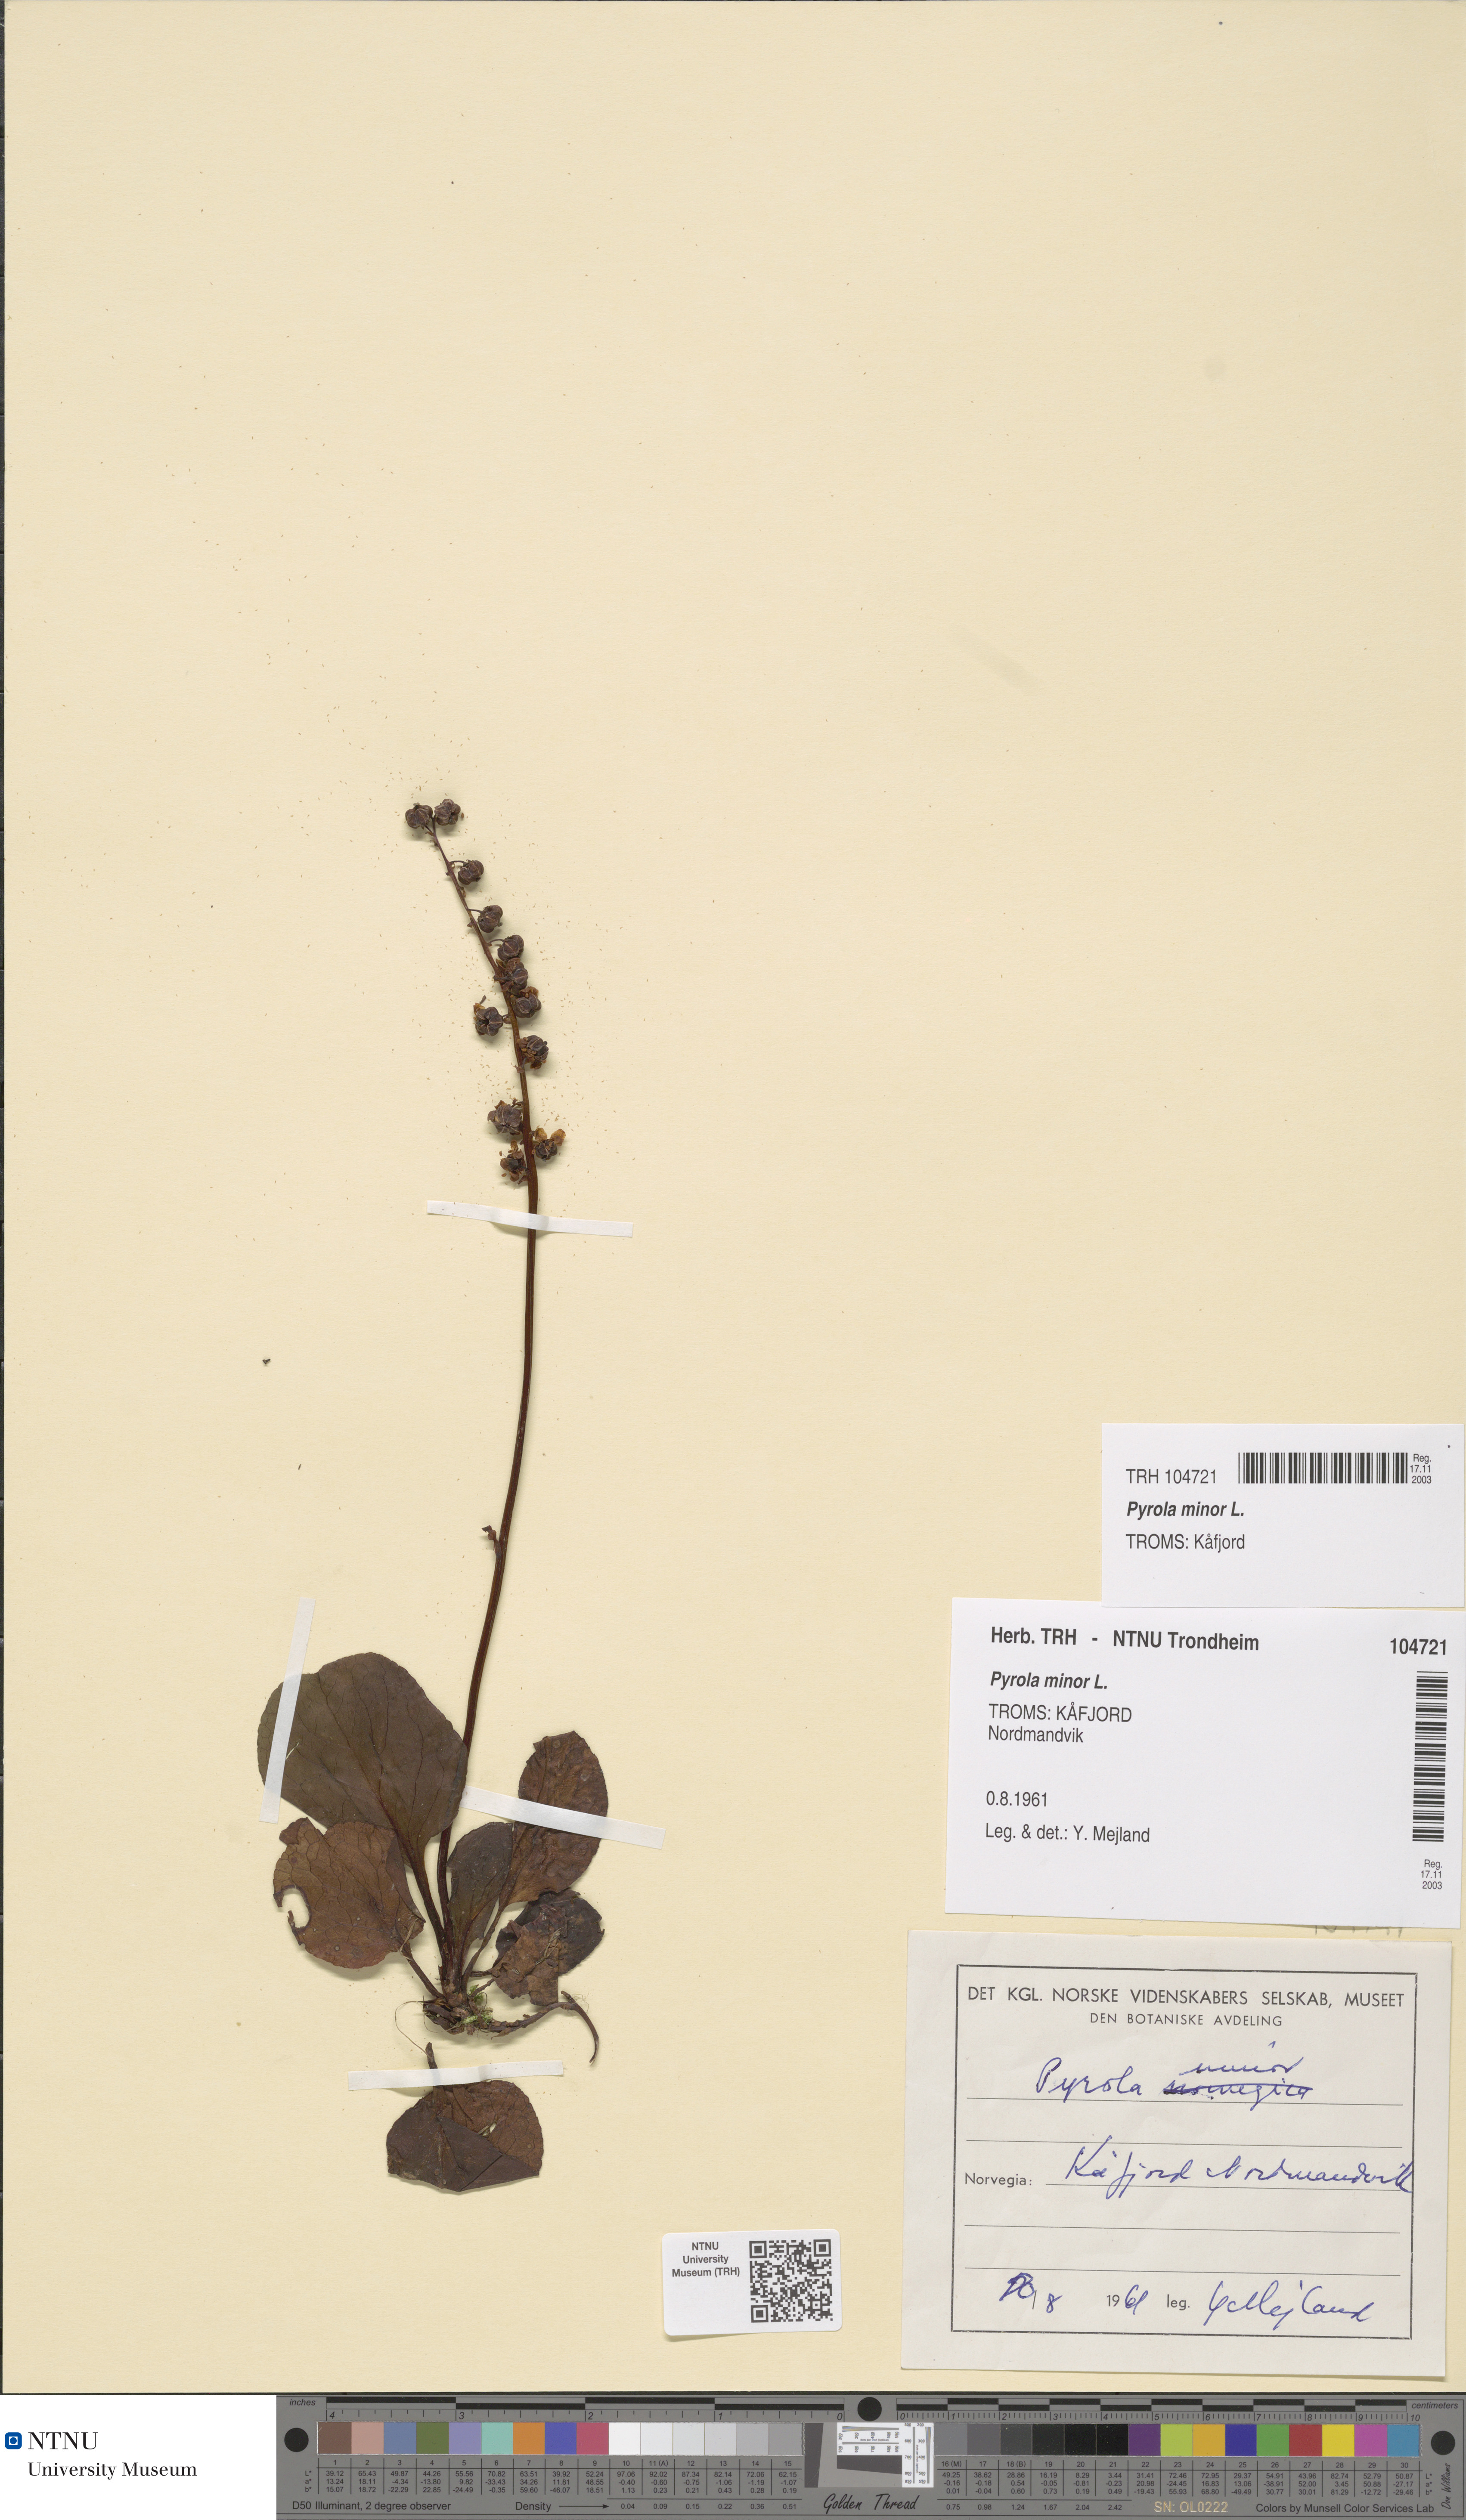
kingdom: Plantae
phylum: Tracheophyta
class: Magnoliopsida
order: Ericales
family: Ericaceae
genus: Pyrola
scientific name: Pyrola minor
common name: Common wintergreen
